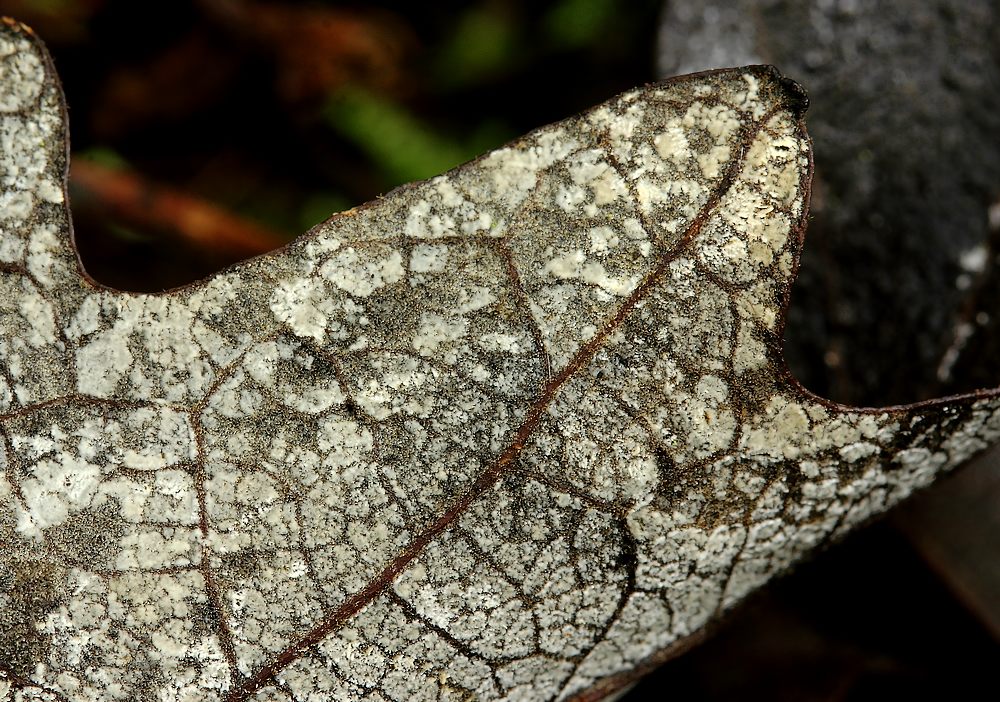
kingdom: Fungi
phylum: Ascomycota
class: Sordariomycetes
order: Hypocreales
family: Cylindriaceae
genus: Cylindrium
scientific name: Cylindrium elongatum
